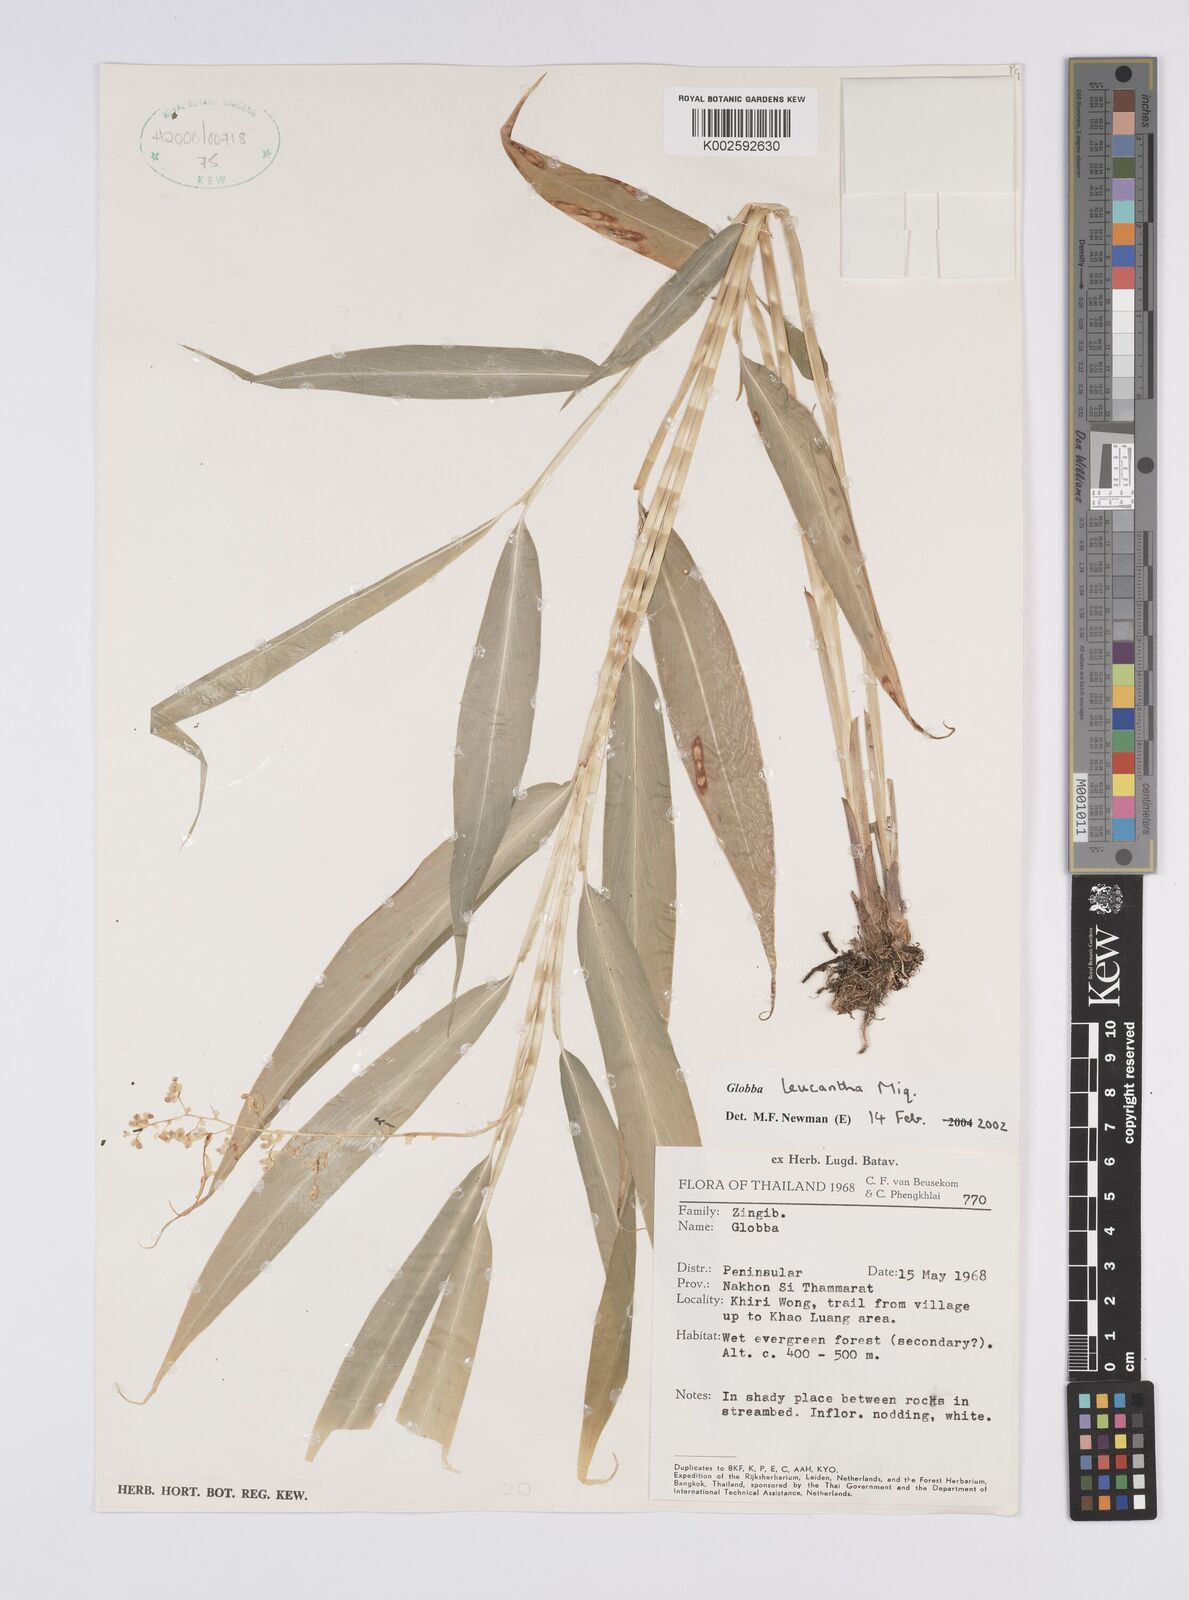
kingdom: Plantae
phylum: Tracheophyta
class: Liliopsida
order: Zingiberales
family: Zingiberaceae
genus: Globba
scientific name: Globba leucantha
